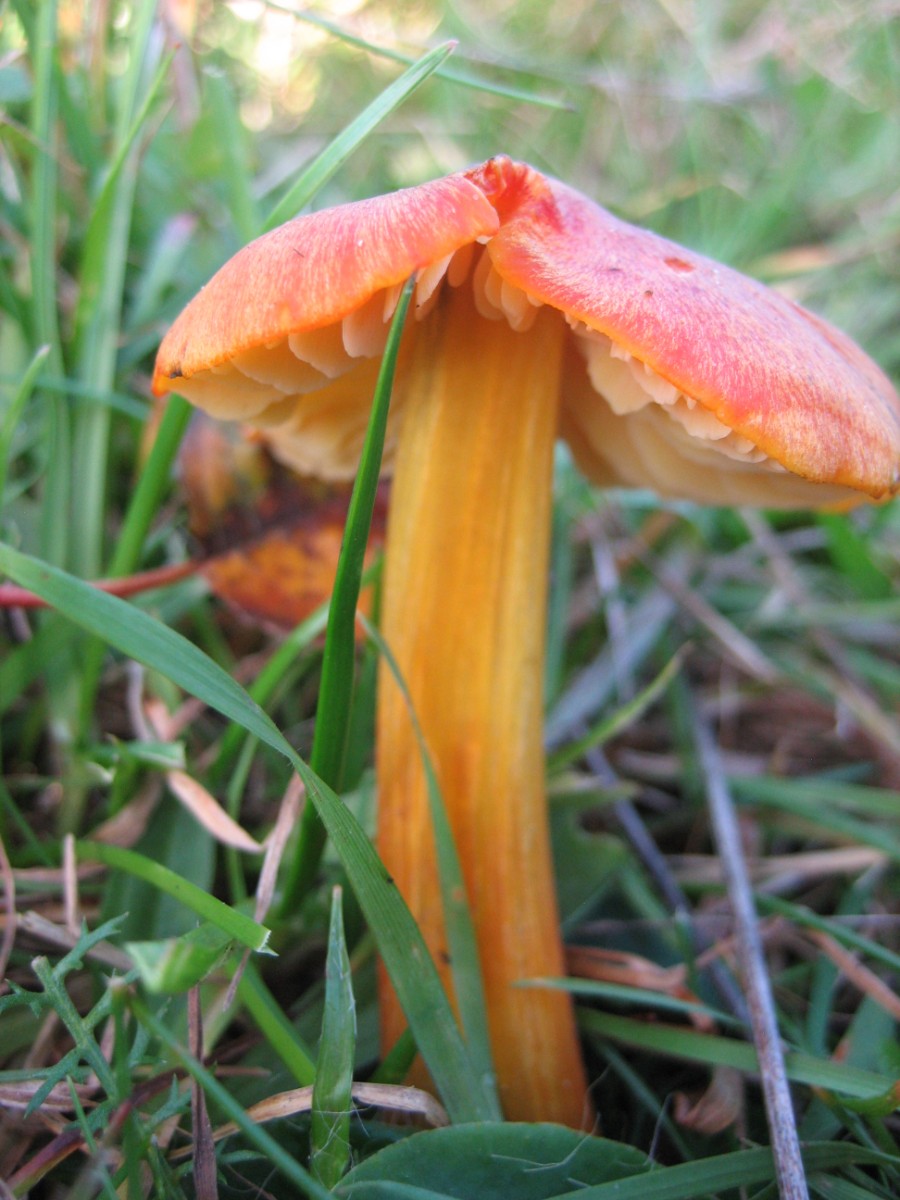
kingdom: Fungi
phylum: Basidiomycota
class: Agaricomycetes
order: Agaricales
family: Hygrophoraceae
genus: Hygrocybe
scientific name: Hygrocybe conica
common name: kegle-vokshat
